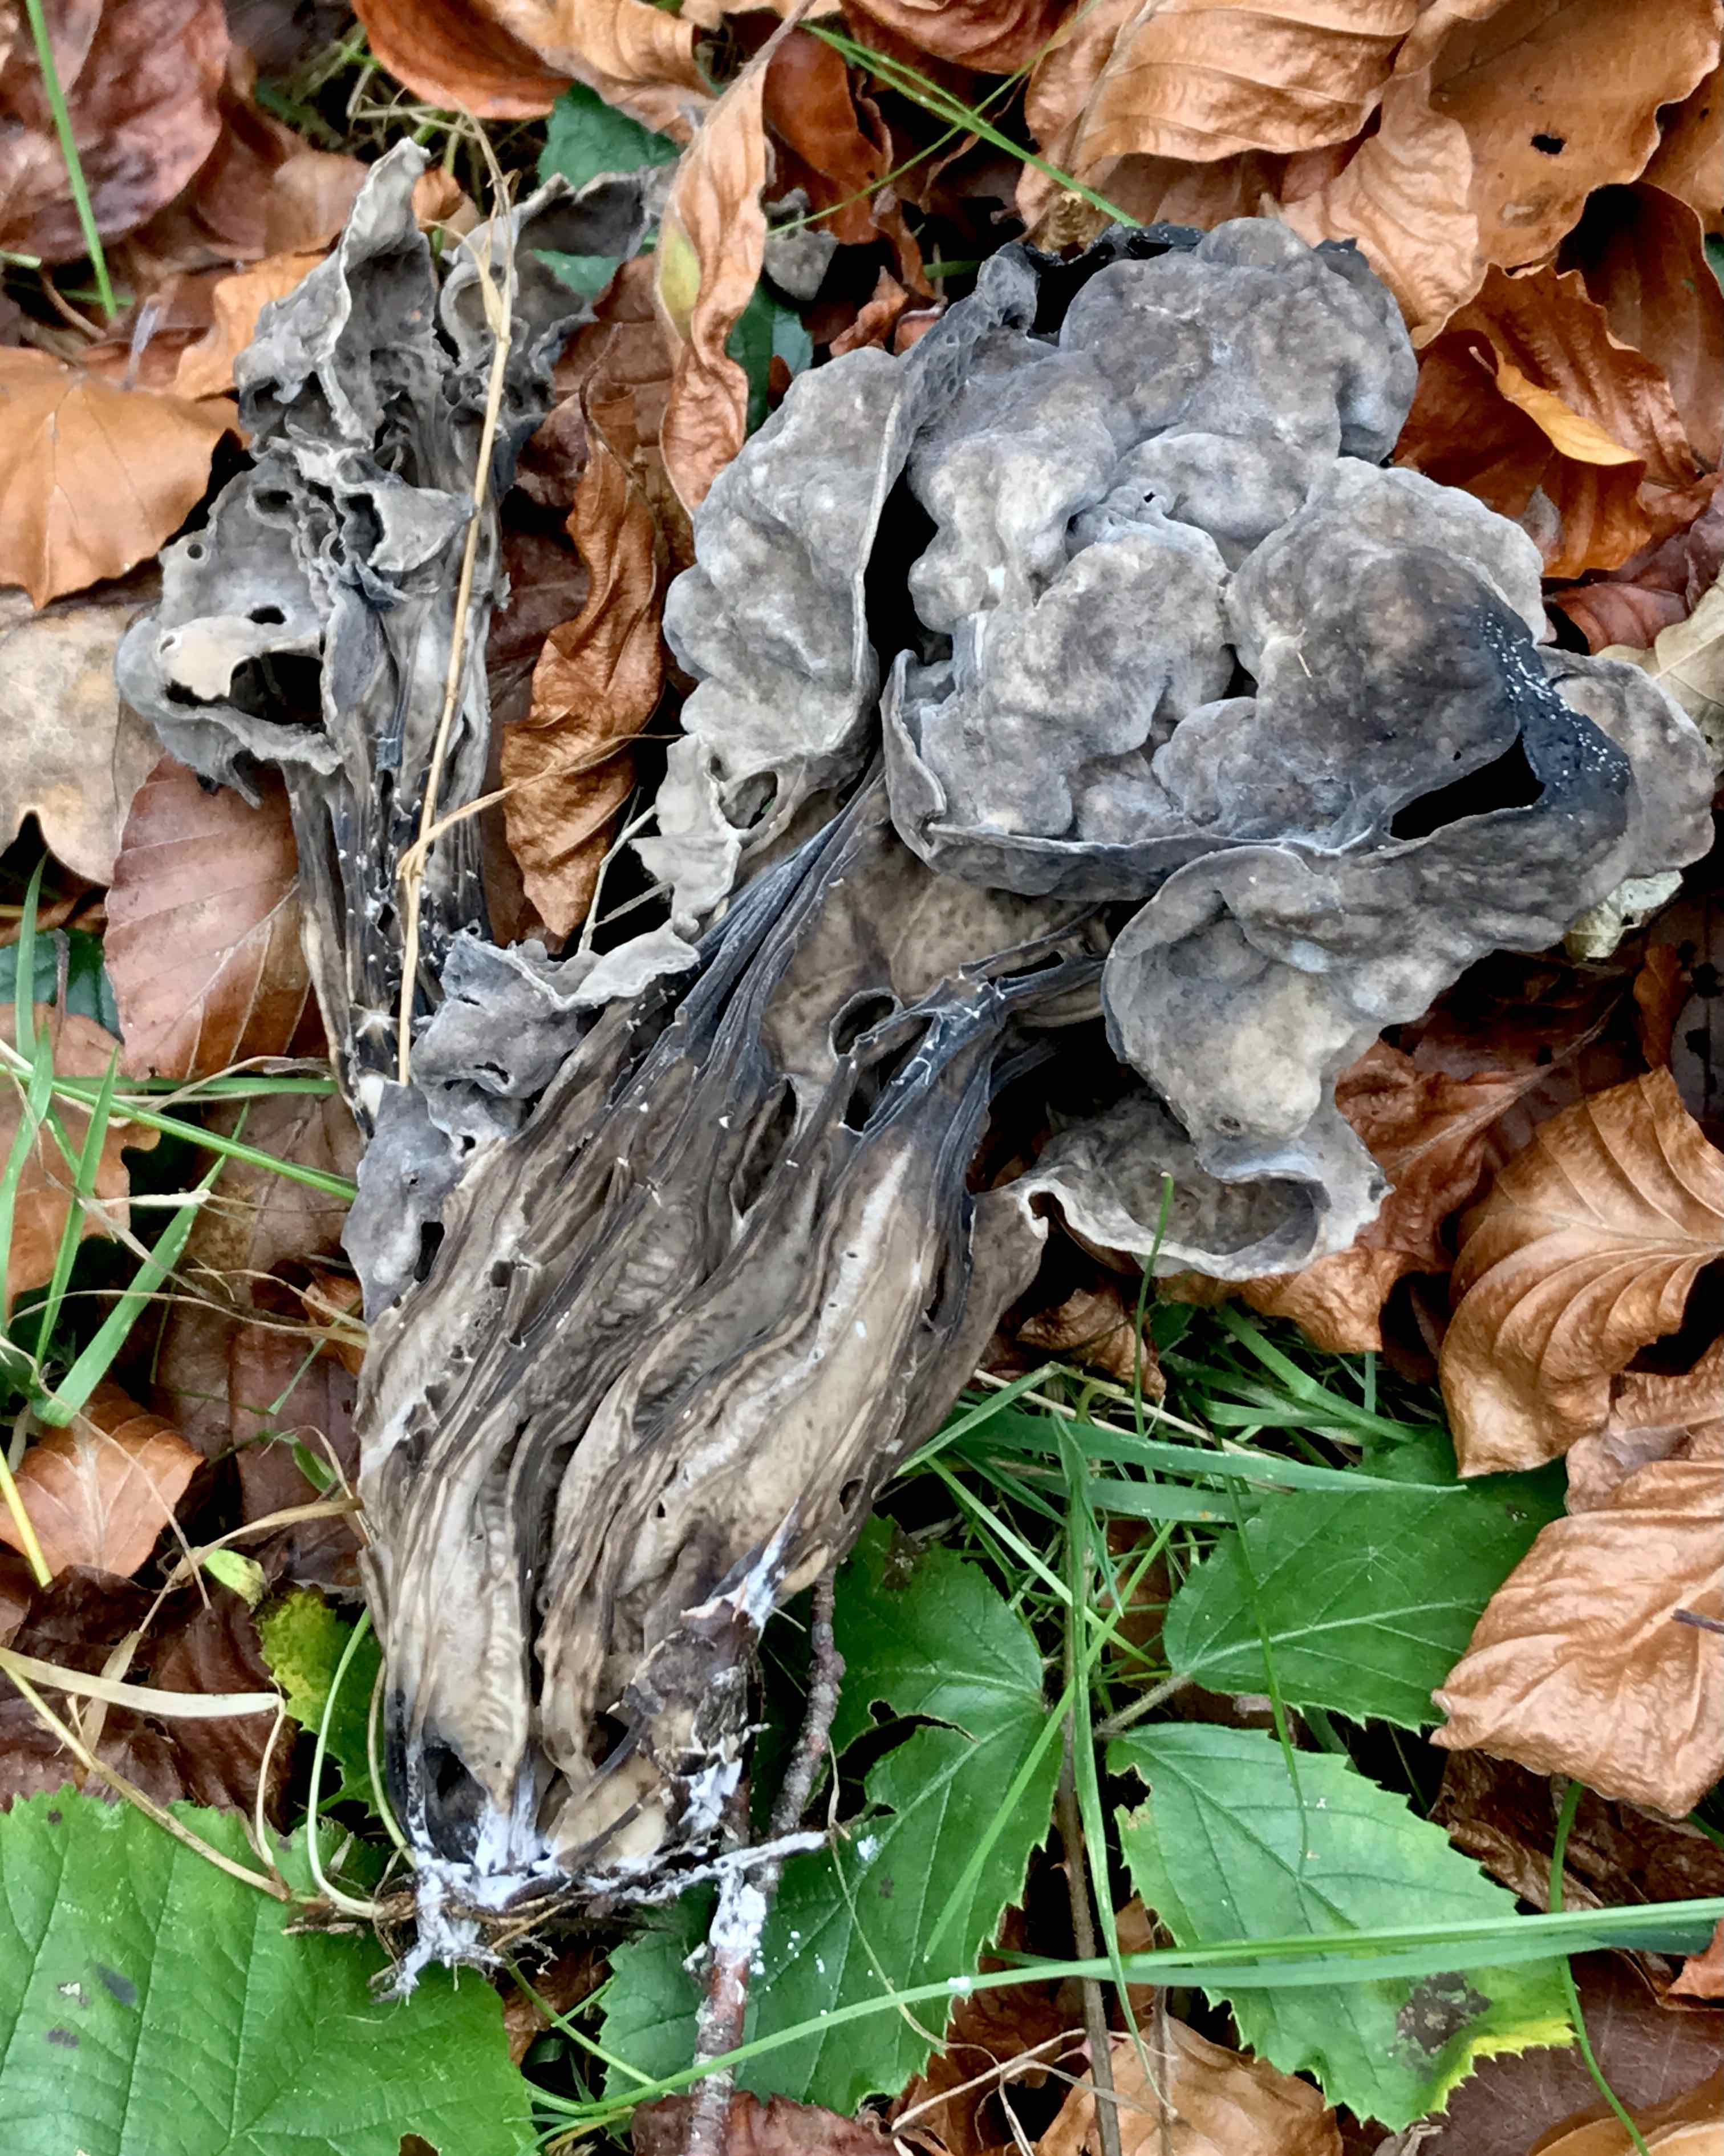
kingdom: Fungi
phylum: Ascomycota
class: Pezizomycetes
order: Pezizales
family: Helvellaceae
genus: Helvella
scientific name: Helvella lacunosa
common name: grubet foldhat
